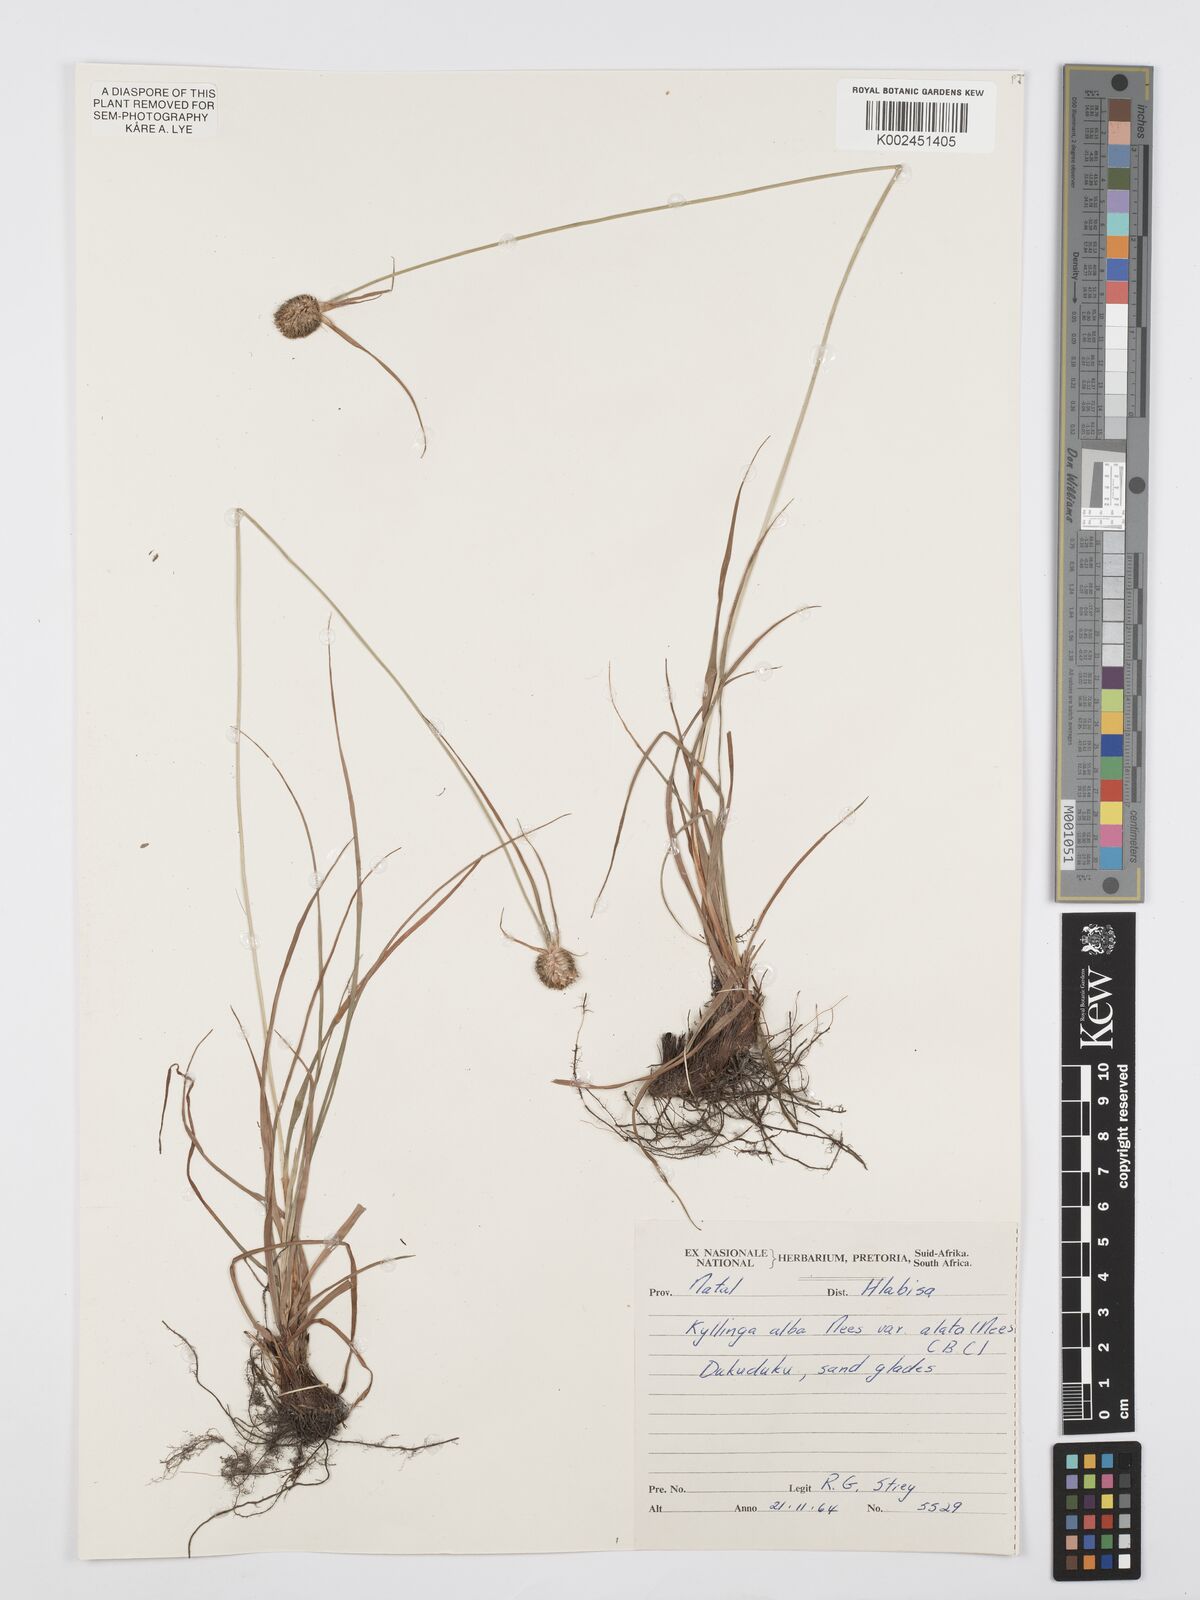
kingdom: Plantae
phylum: Tracheophyta
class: Liliopsida
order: Poales
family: Cyperaceae
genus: Cyperus
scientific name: Cyperus alatus
